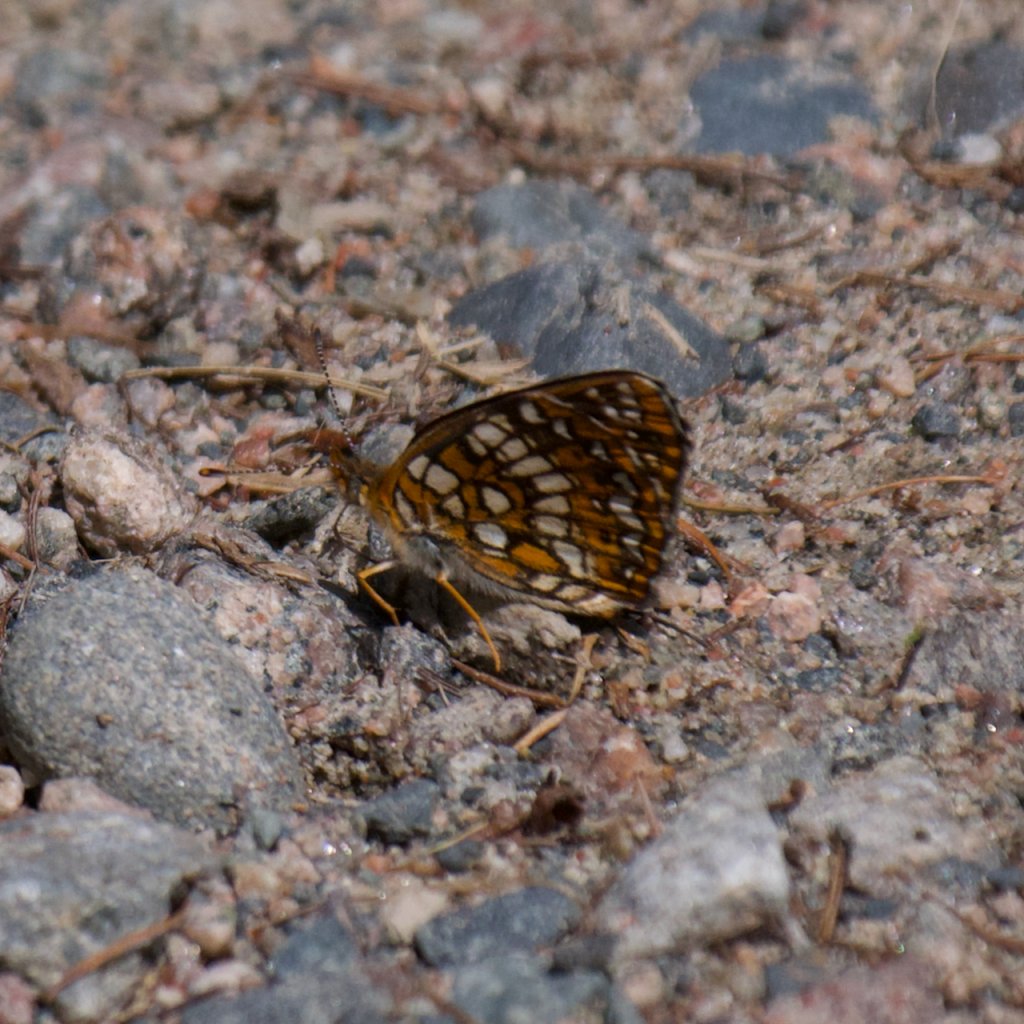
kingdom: Animalia
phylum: Arthropoda
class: Insecta
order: Lepidoptera
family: Nymphalidae
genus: Chlosyne
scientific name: Chlosyne harrisii
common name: Harris's Checkerspot
